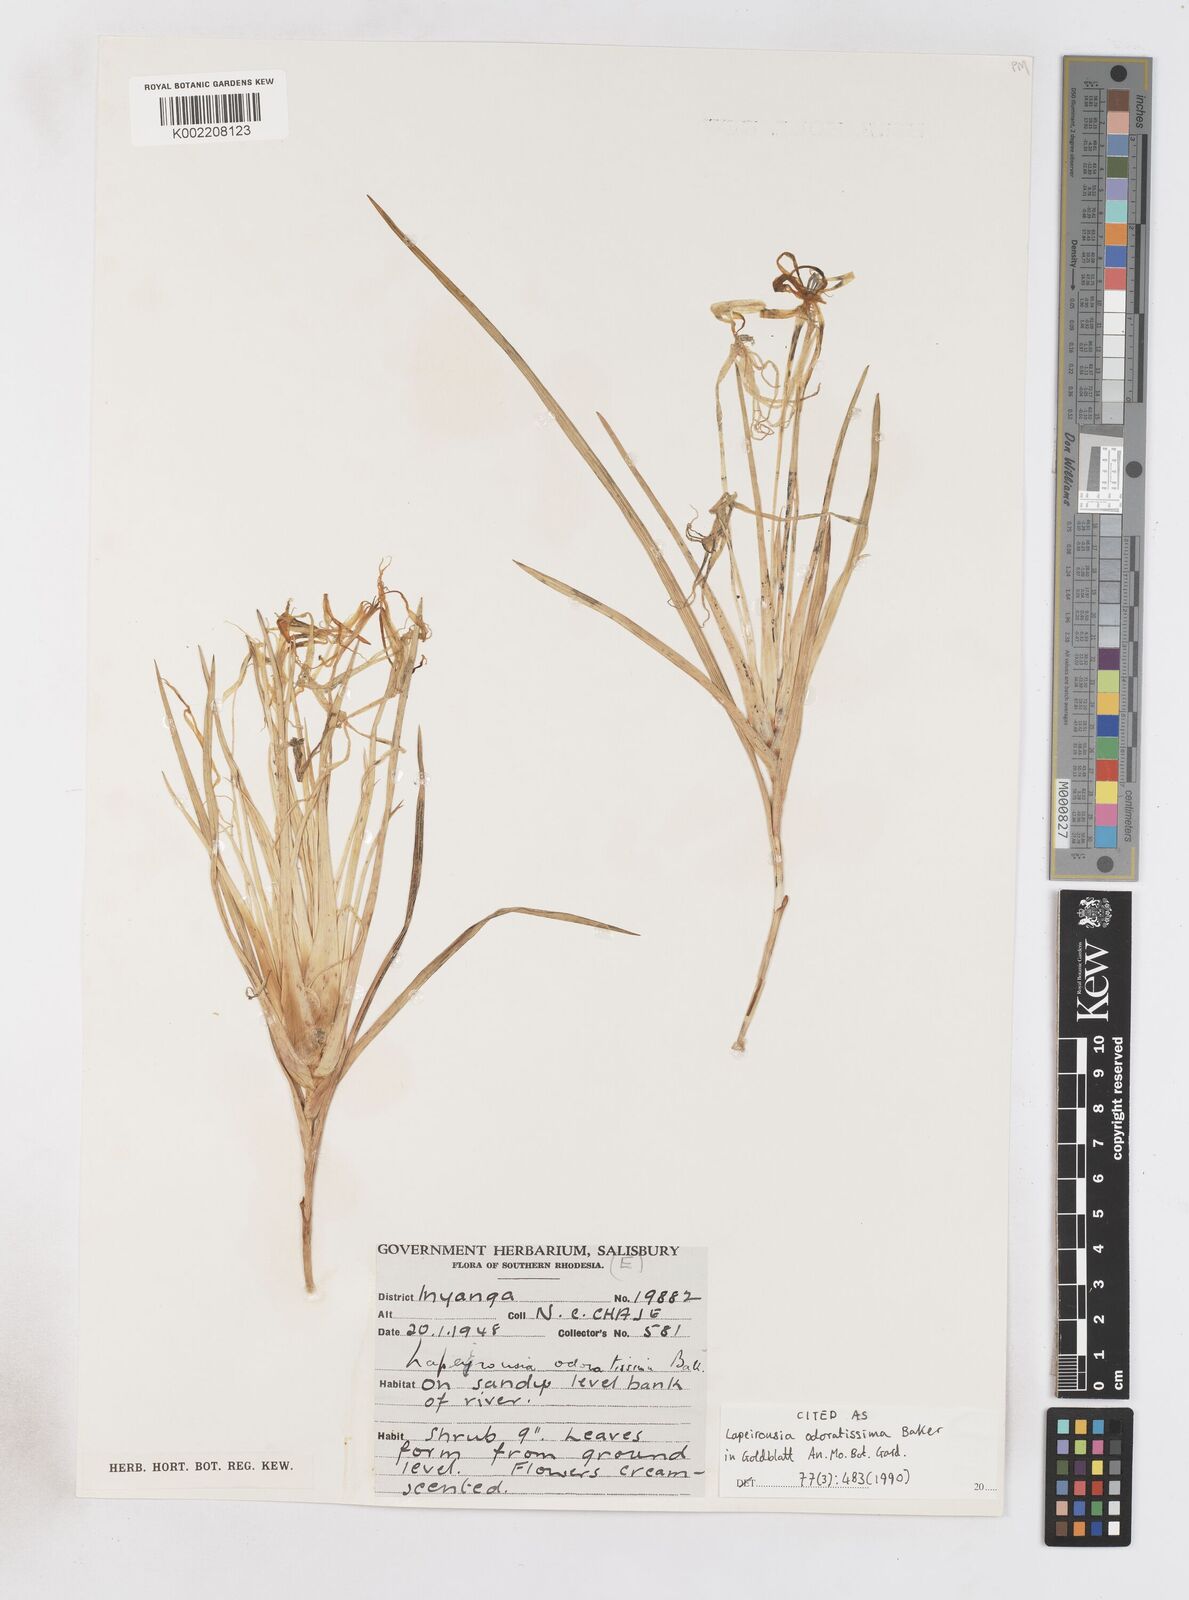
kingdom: Plantae
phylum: Tracheophyta
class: Liliopsida
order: Asparagales
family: Iridaceae
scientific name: Iridaceae
